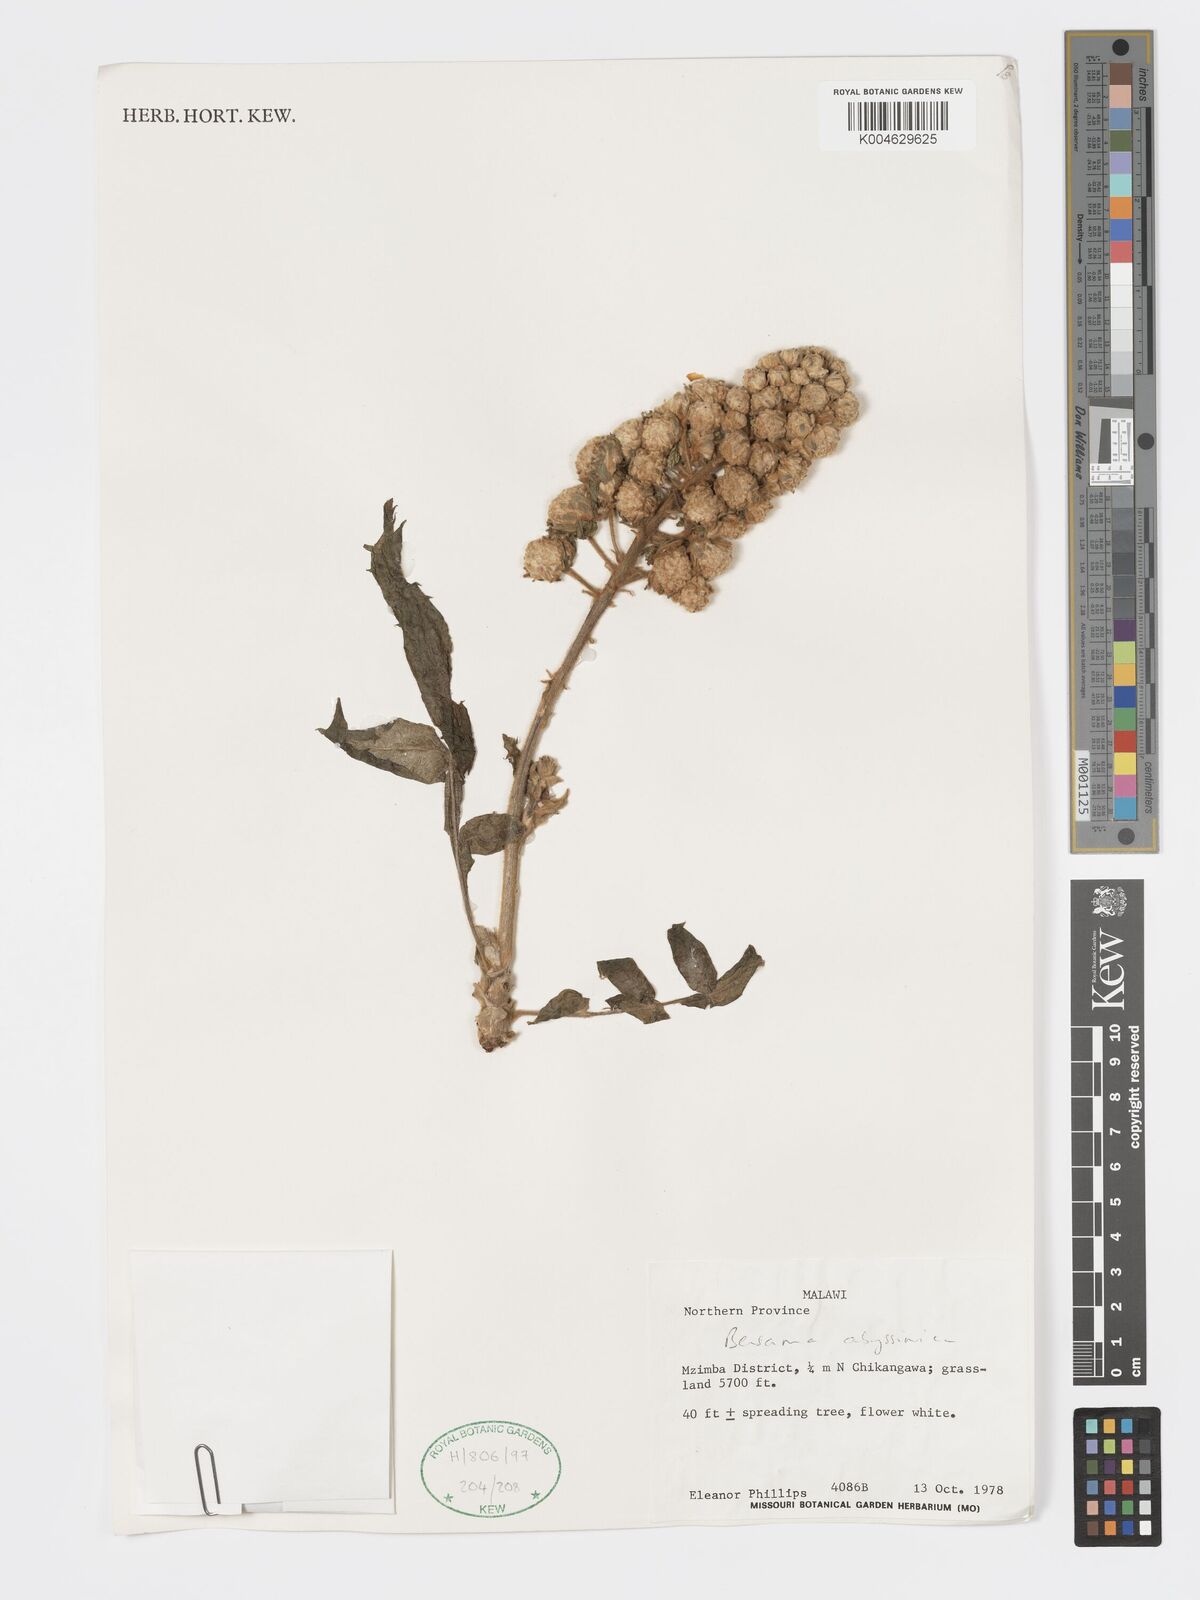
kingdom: Plantae
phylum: Tracheophyta
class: Magnoliopsida
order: Geraniales
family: Melianthaceae
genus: Bersama
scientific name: Bersama abyssinica
